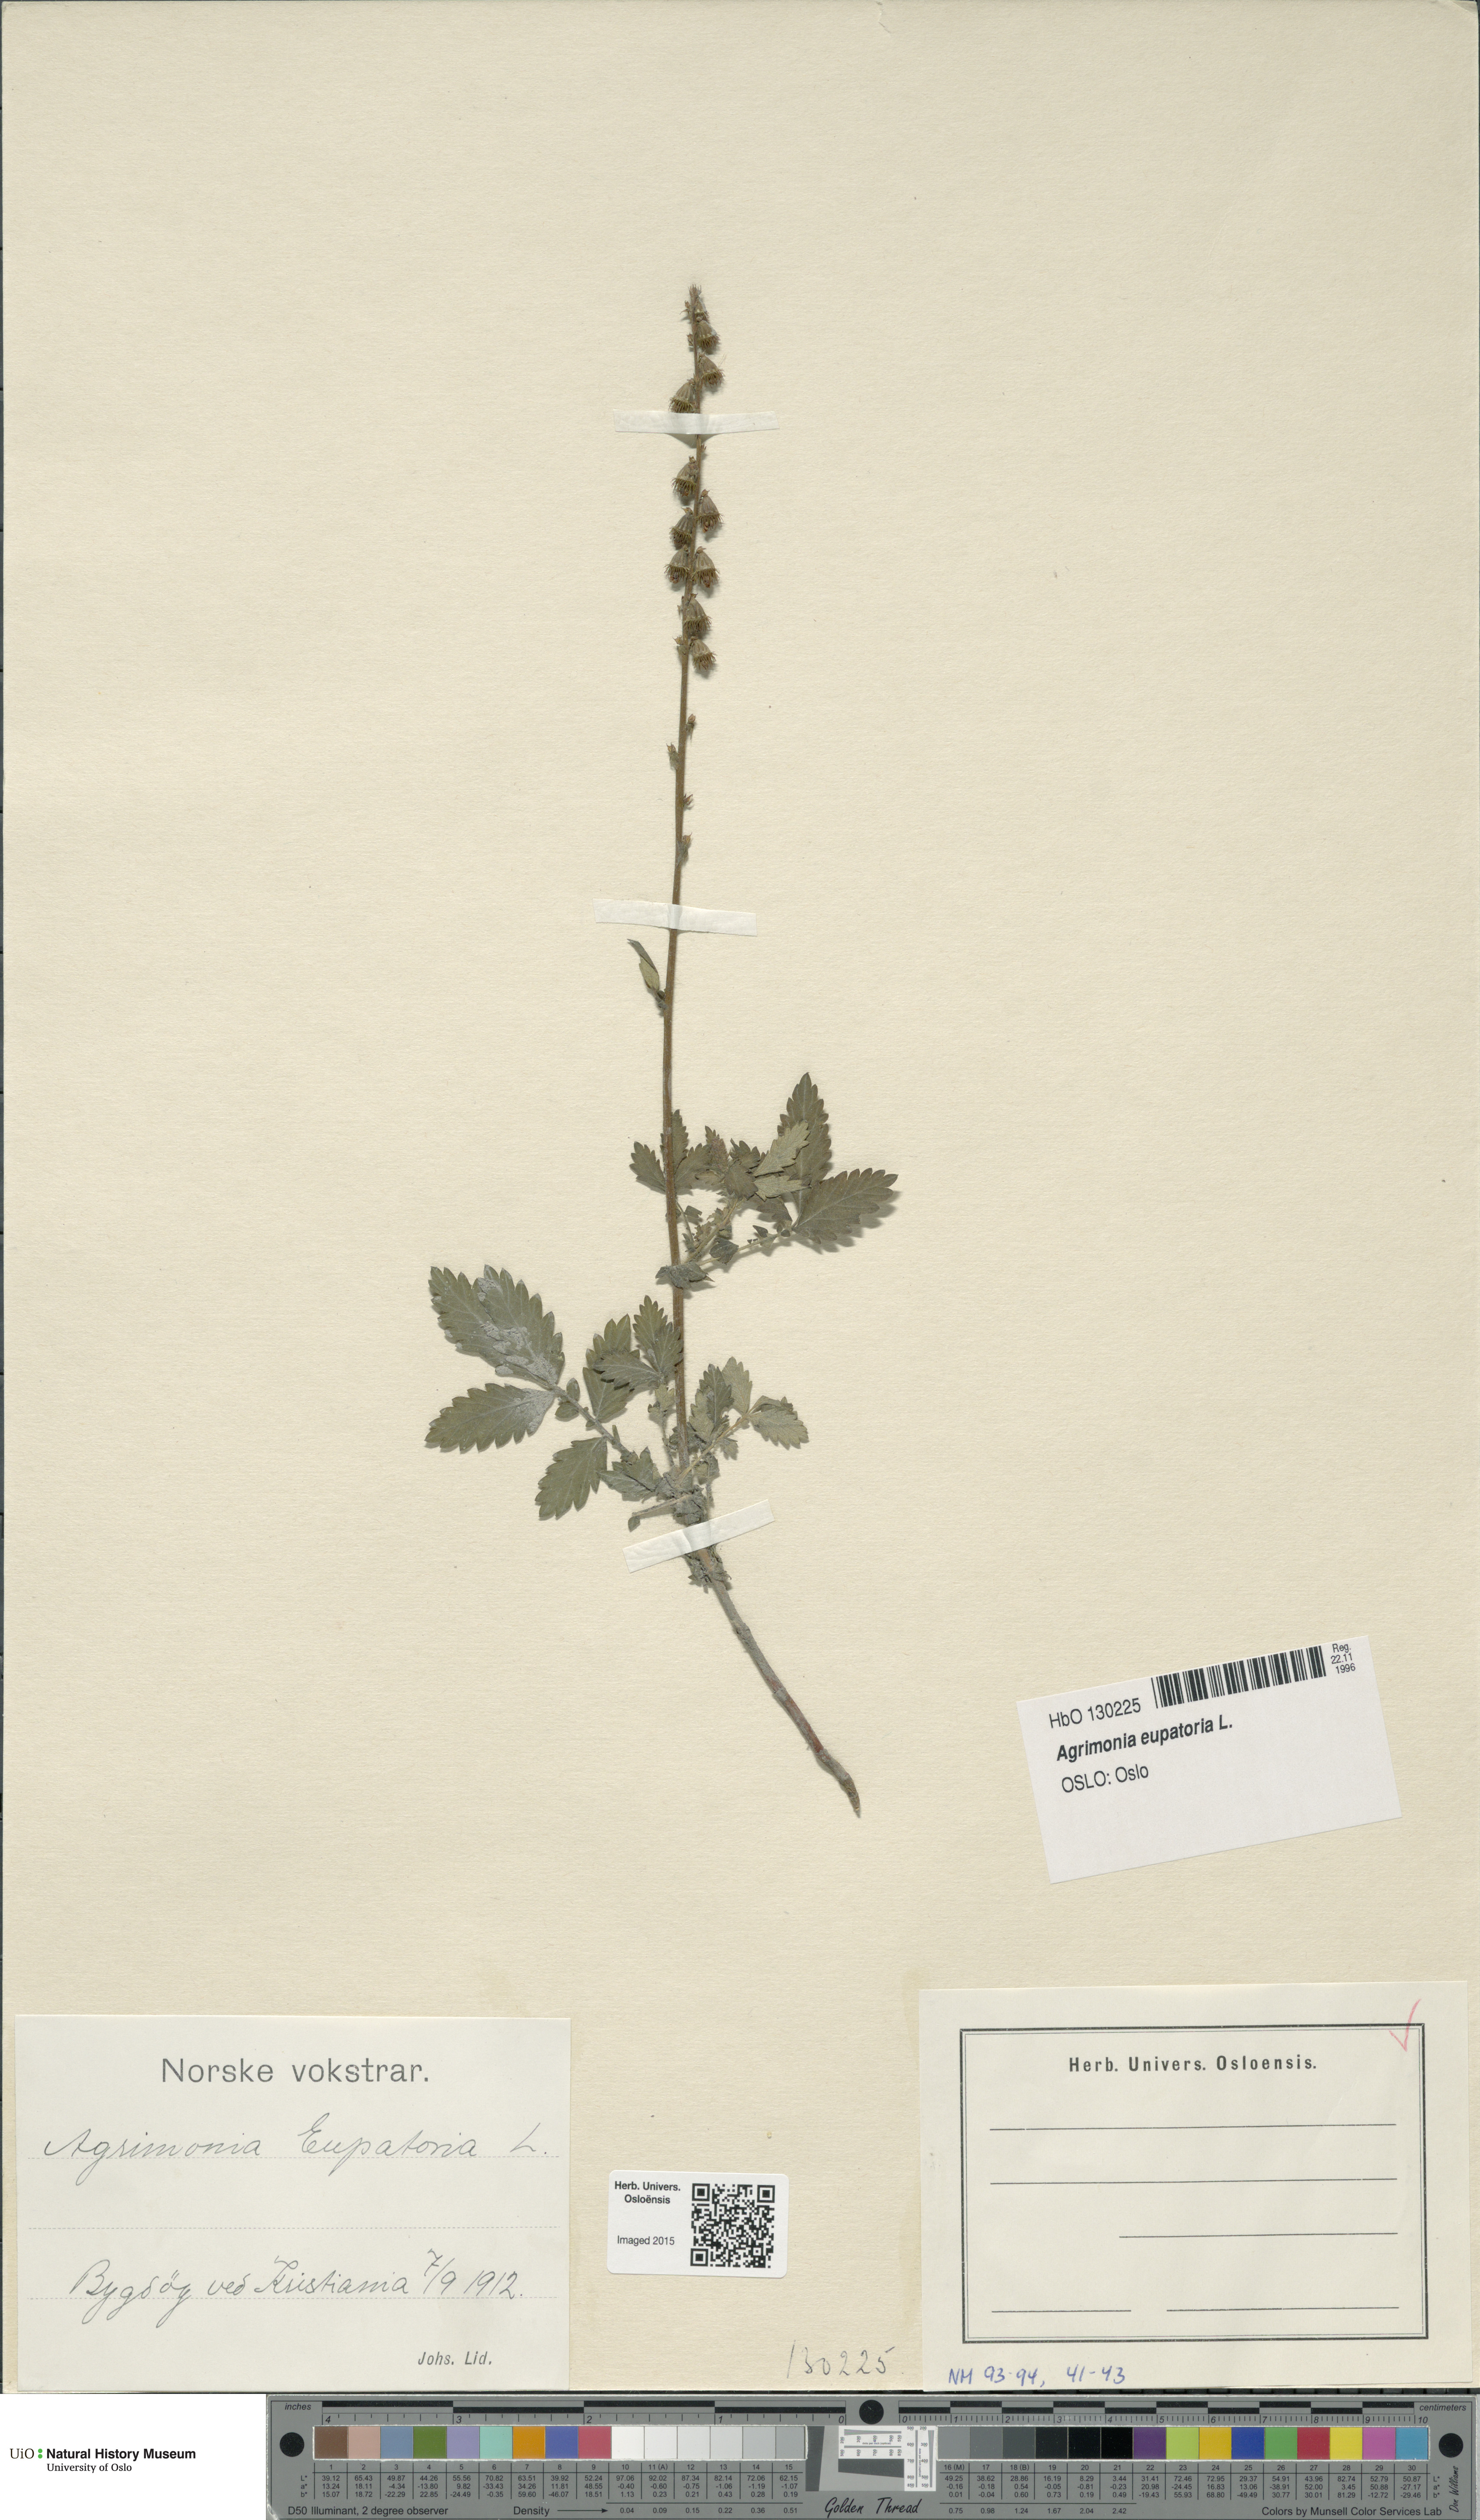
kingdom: Plantae
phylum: Tracheophyta
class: Magnoliopsida
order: Rosales
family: Rosaceae
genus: Agrimonia
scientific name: Agrimonia eupatoria
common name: Agrimony
